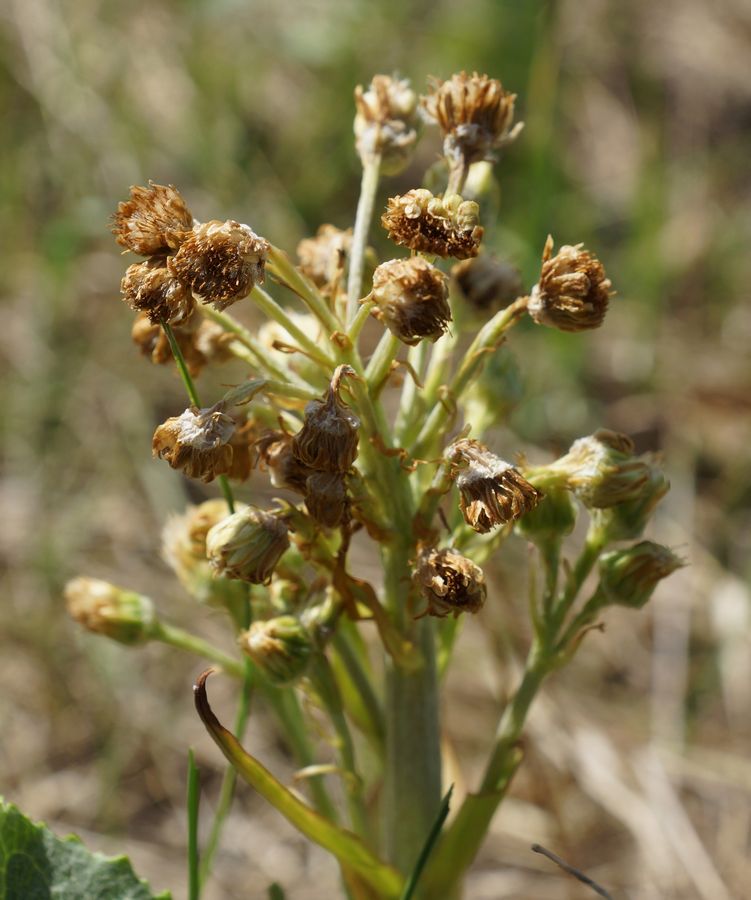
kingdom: Plantae
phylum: Tracheophyta
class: Magnoliopsida
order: Asterales
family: Asteraceae
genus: Petasites
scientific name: Petasites spurius
